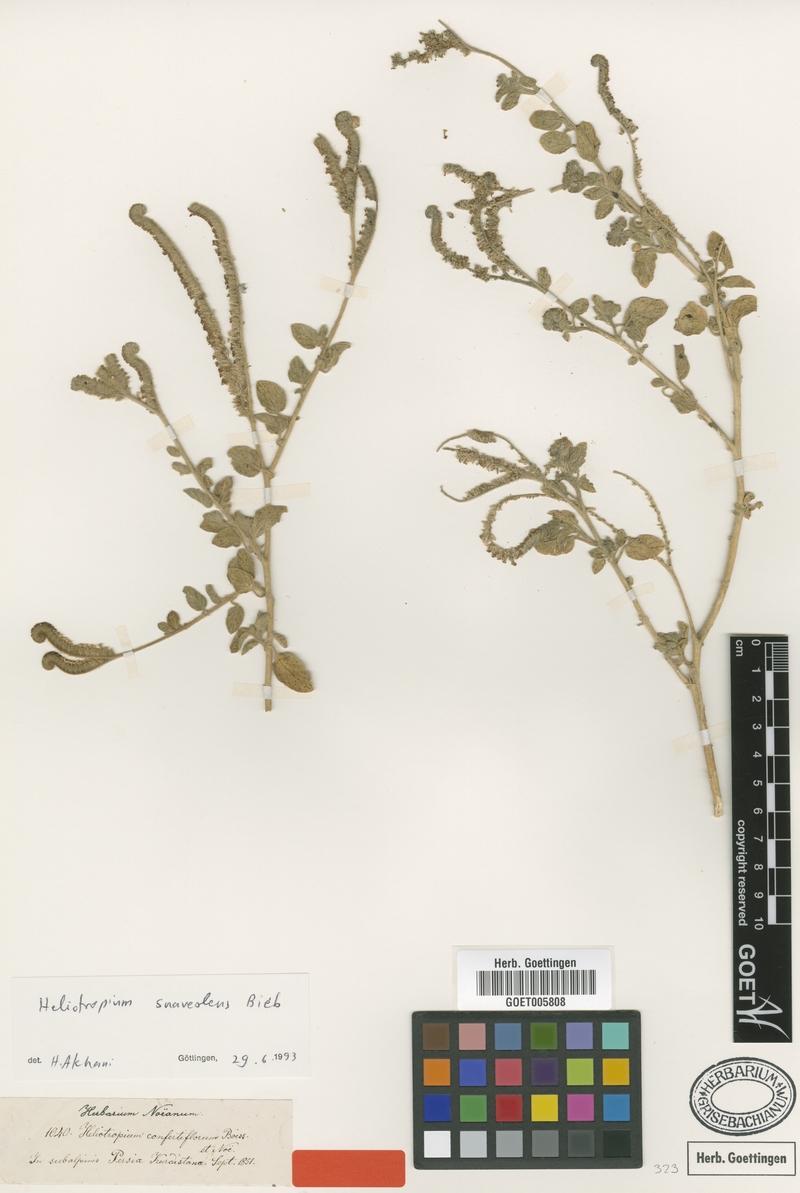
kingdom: Plantae
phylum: Tracheophyta
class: Magnoliopsida
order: Boraginales
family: Heliotropiaceae
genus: Heliotropium
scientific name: Heliotropium confertiflorum
